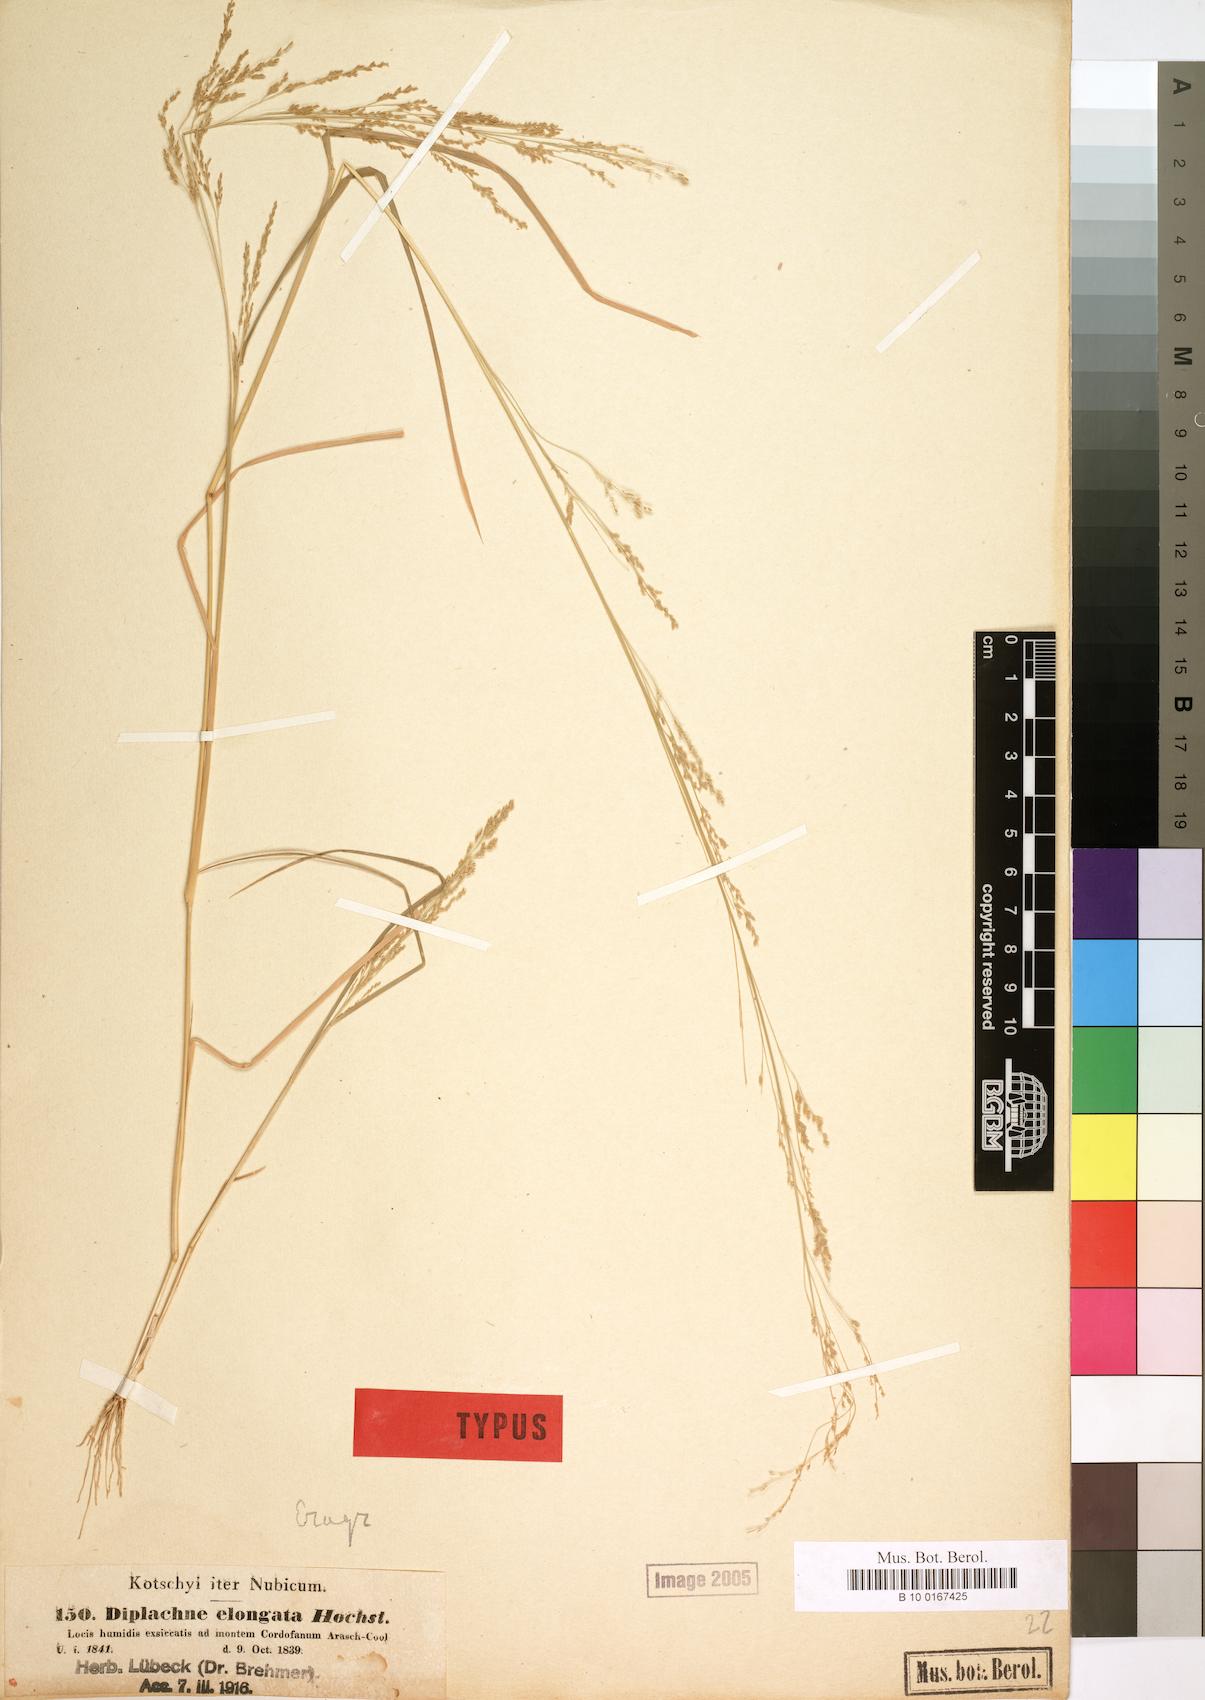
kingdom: Plantae
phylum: Tracheophyta
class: Liliopsida
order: Poales
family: Poaceae
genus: Eragrostis
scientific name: Eragrostis japonica
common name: Pond lovegrass
